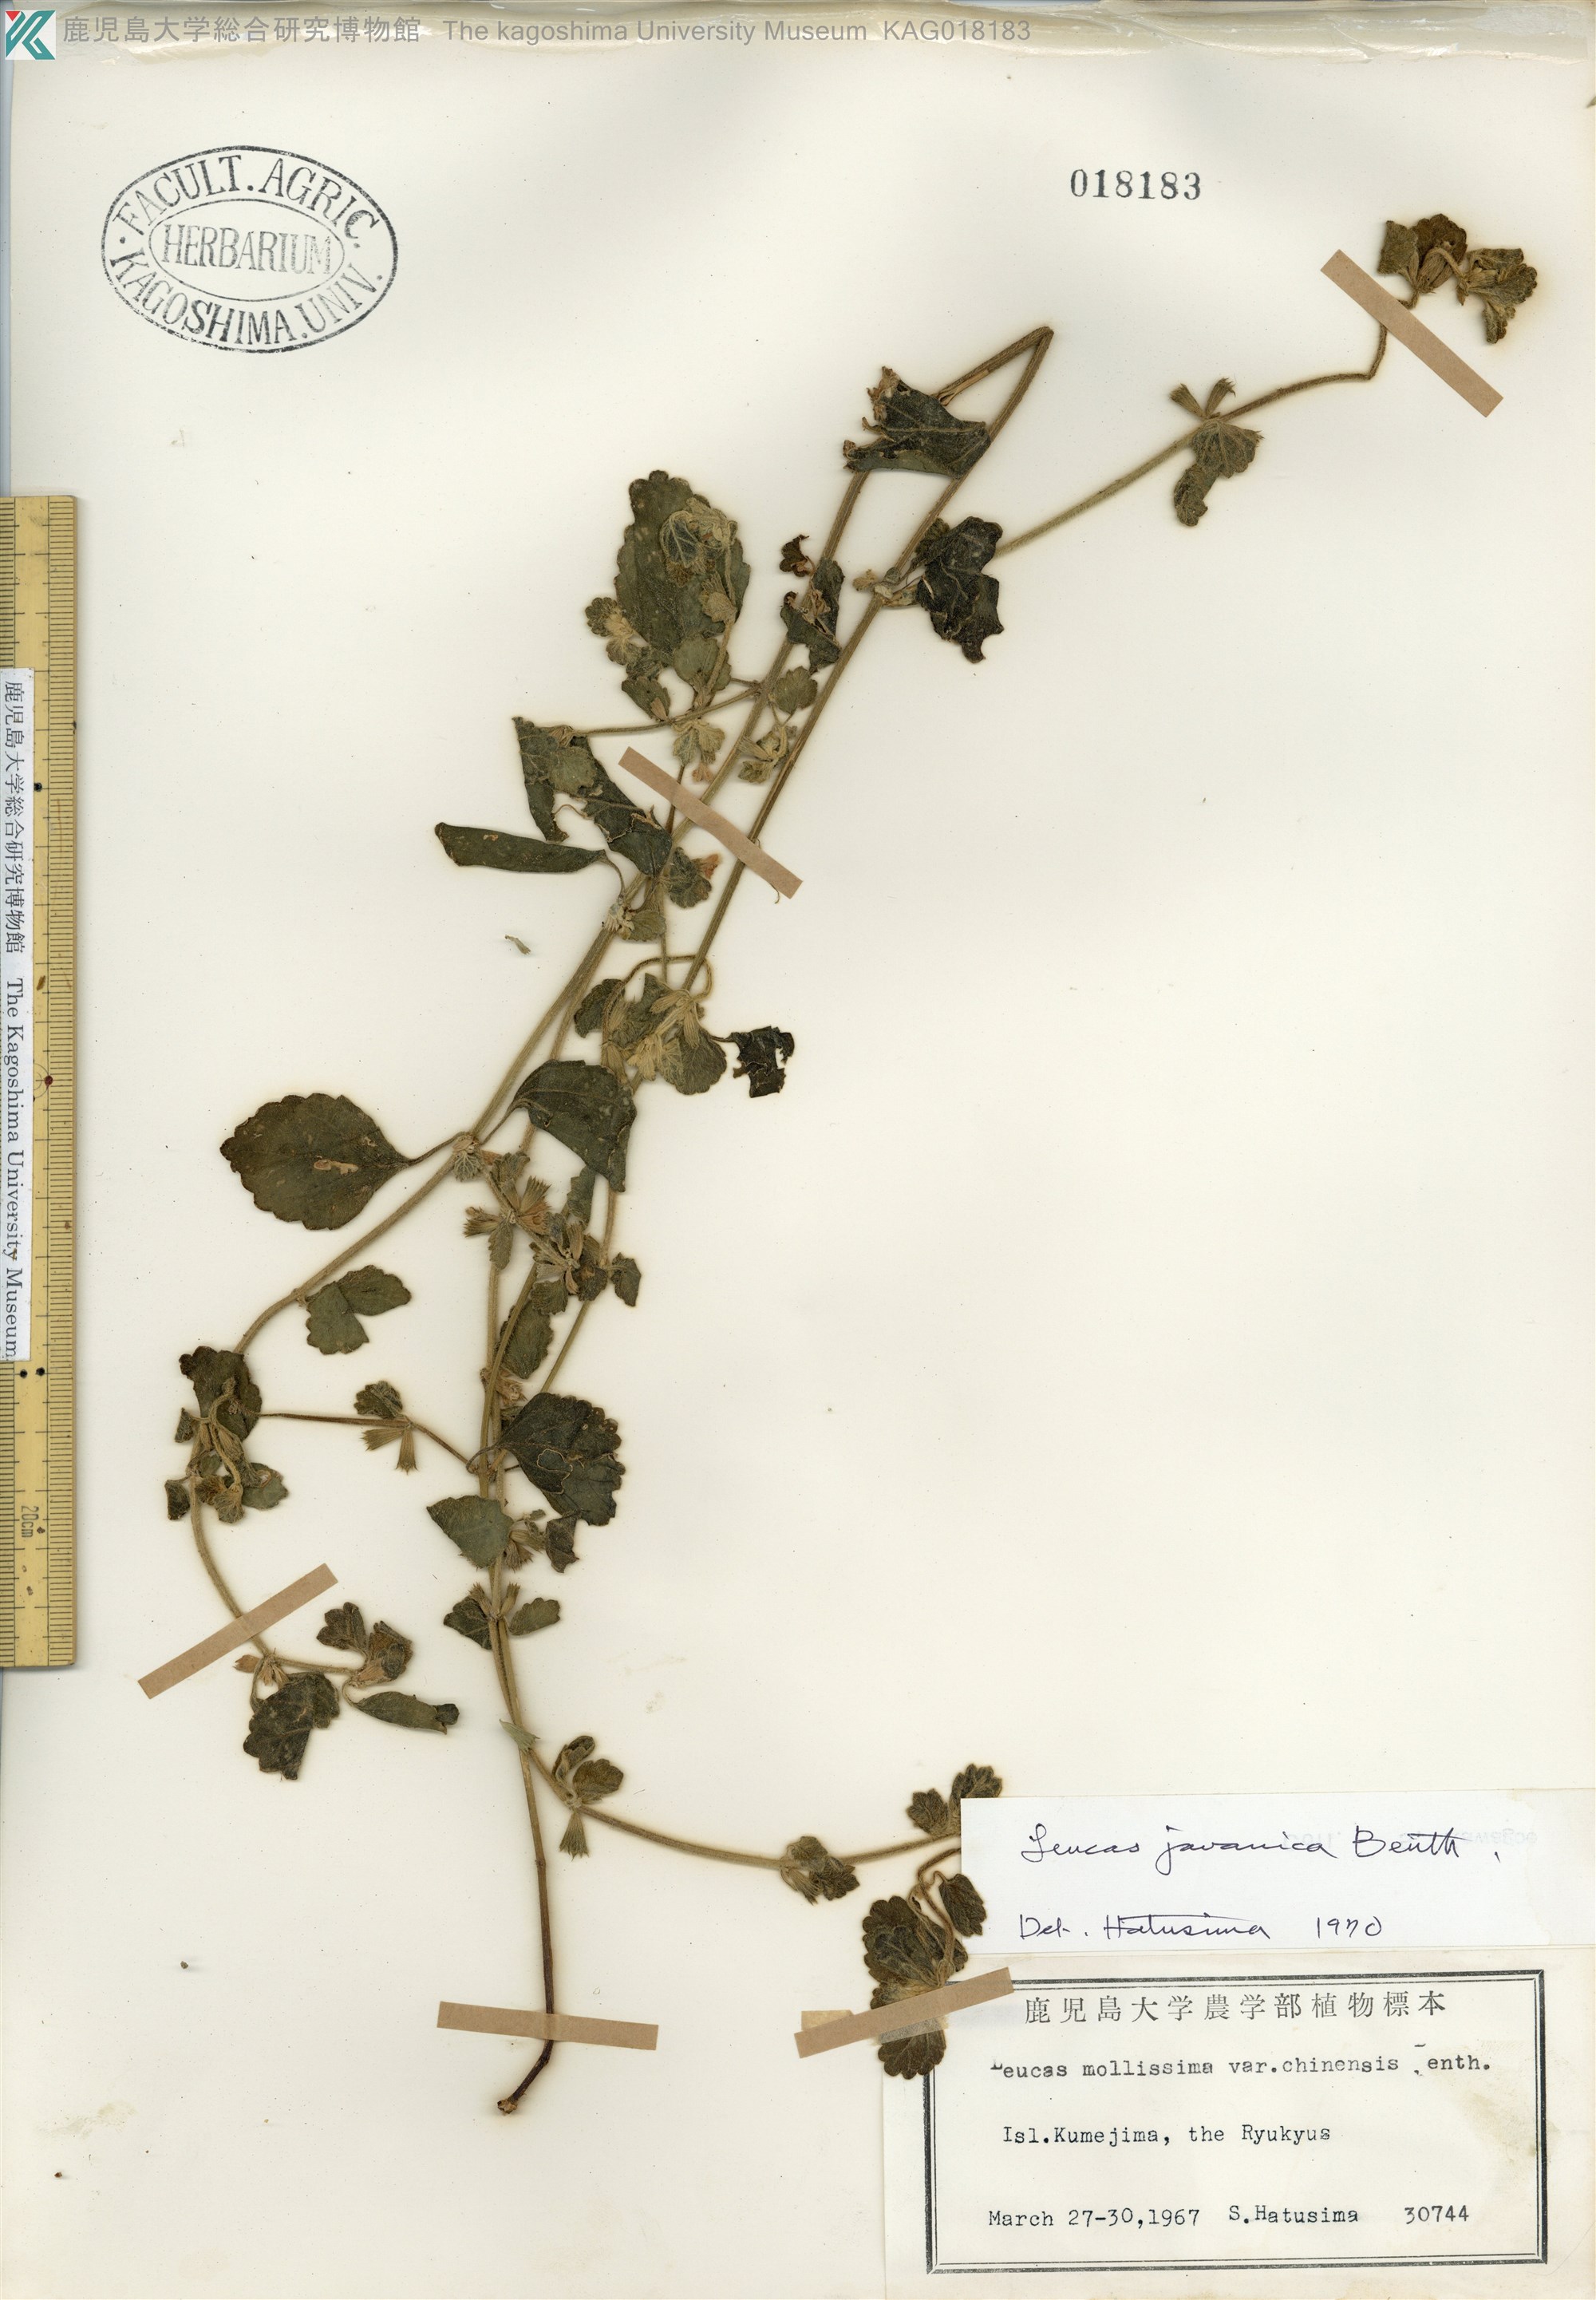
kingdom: Plantae
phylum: Tracheophyta
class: Magnoliopsida
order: Lamiales
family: Lamiaceae
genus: Leucas
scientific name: Leucas chinensis
